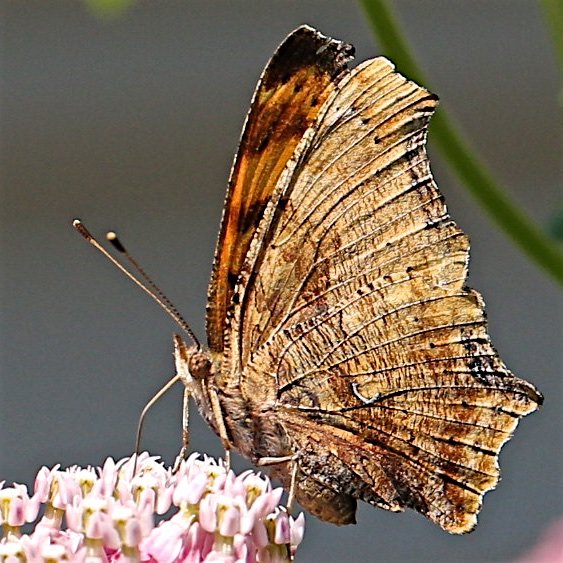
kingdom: Animalia
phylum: Arthropoda
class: Insecta
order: Lepidoptera
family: Nymphalidae
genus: Polygonia
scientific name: Polygonia comma
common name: Eastern Comma
